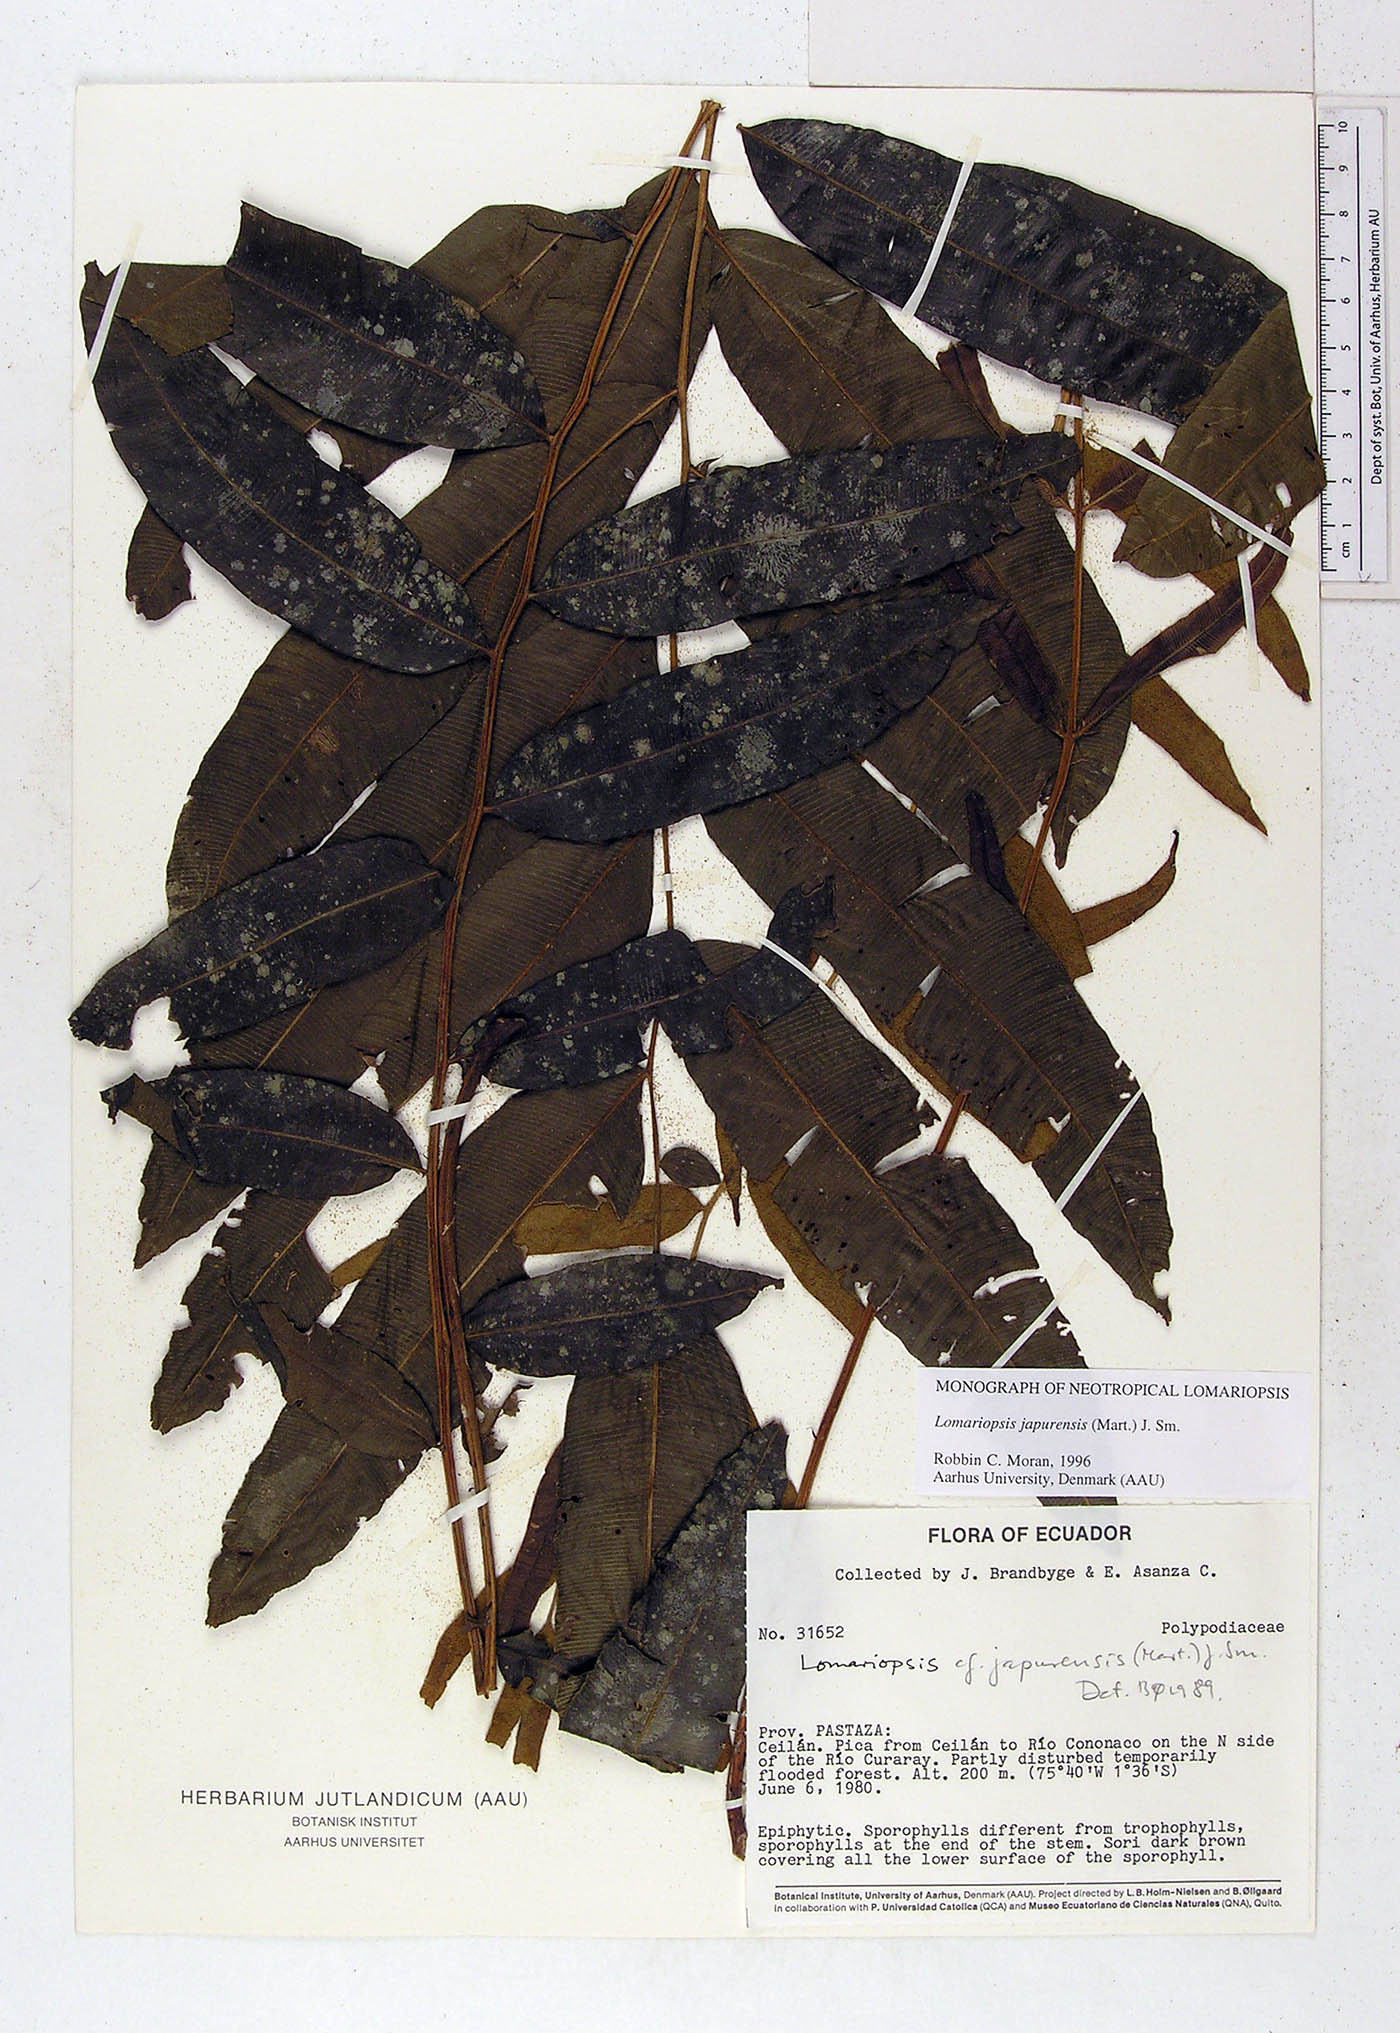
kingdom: Plantae
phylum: Tracheophyta
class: Polypodiopsida
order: Polypodiales
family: Lomariopsidaceae
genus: Lomariopsis
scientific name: Lomariopsis japurensis
